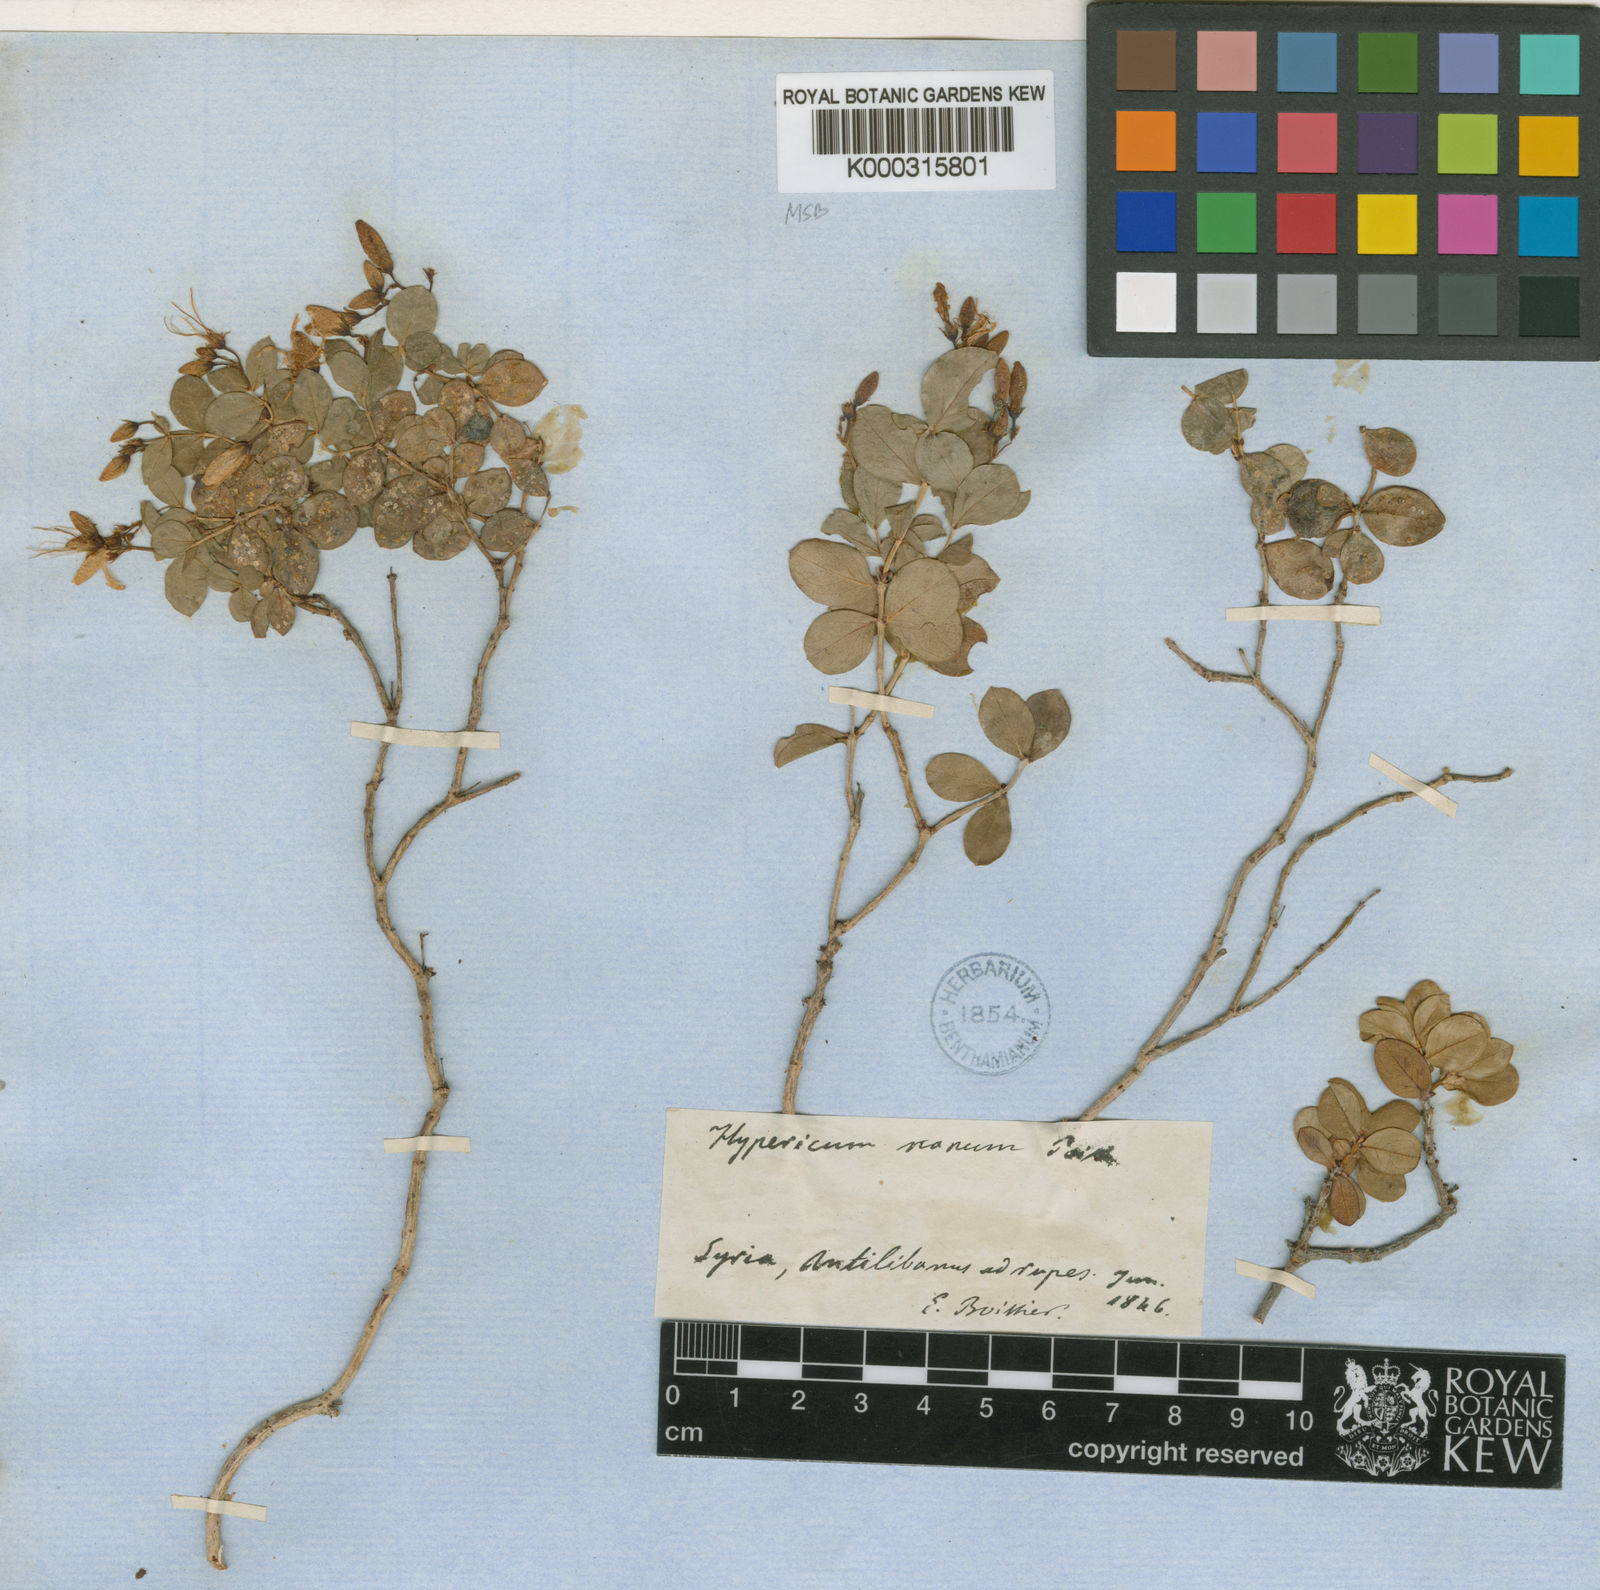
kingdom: Plantae
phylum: Tracheophyta
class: Magnoliopsida
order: Malpighiales
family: Hypericaceae
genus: Hypericum
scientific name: Hypericum nanum
